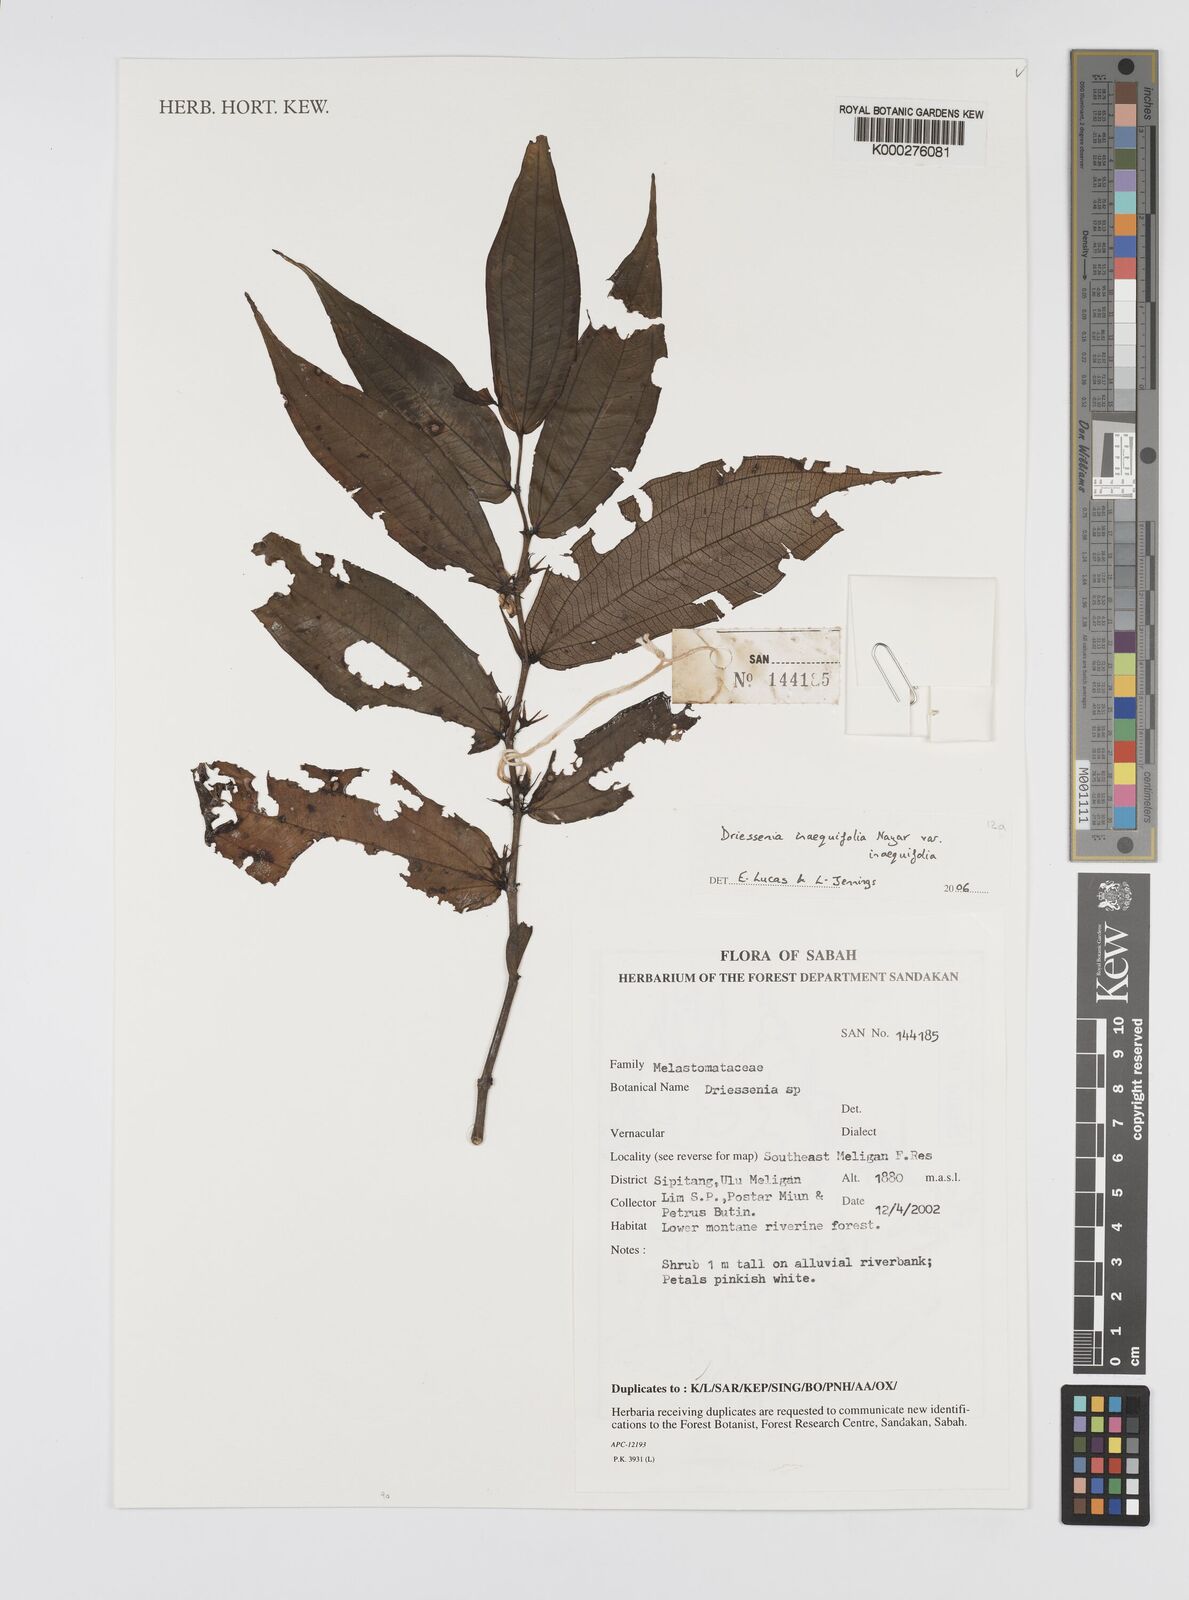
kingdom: Plantae
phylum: Tracheophyta
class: Magnoliopsida
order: Myrtales
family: Melastomataceae
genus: Driessenia
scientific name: Driessenia
